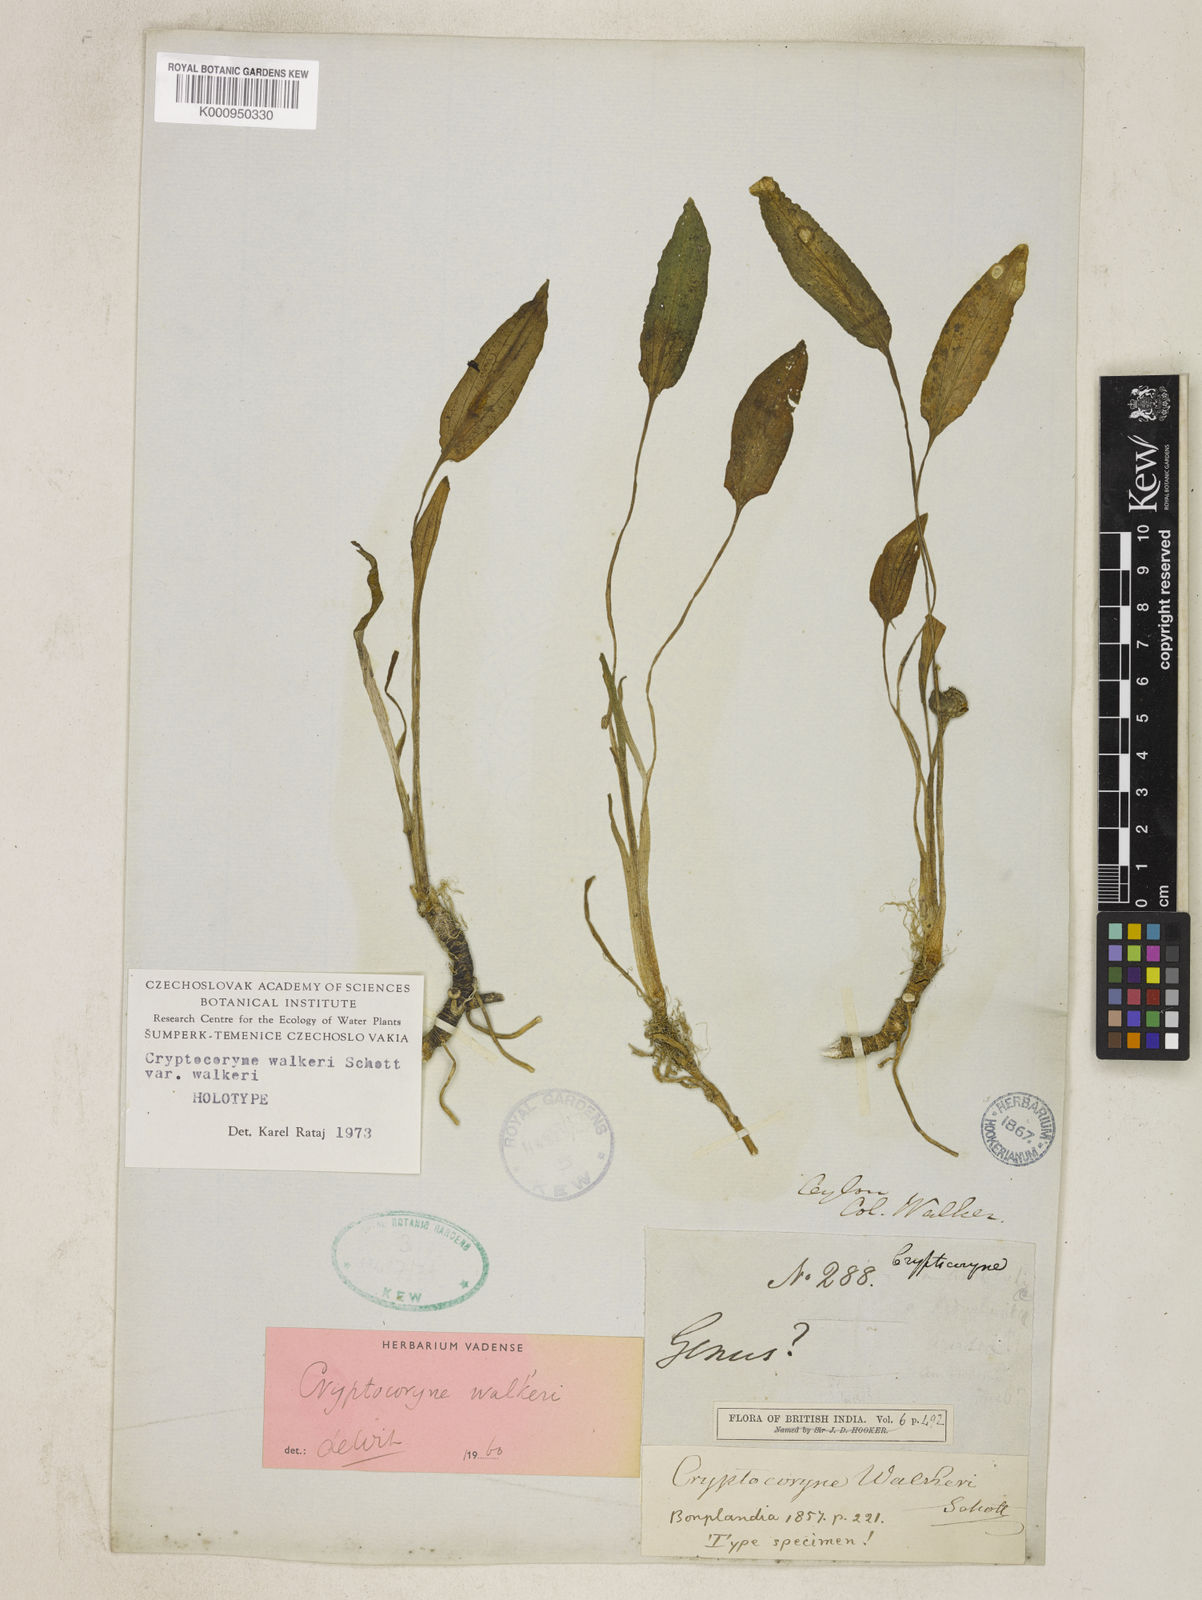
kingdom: Plantae
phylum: Tracheophyta
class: Liliopsida
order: Alismatales
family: Araceae
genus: Cryptocoryne
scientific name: Cryptocoryne walkeri
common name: Water-trumpet
